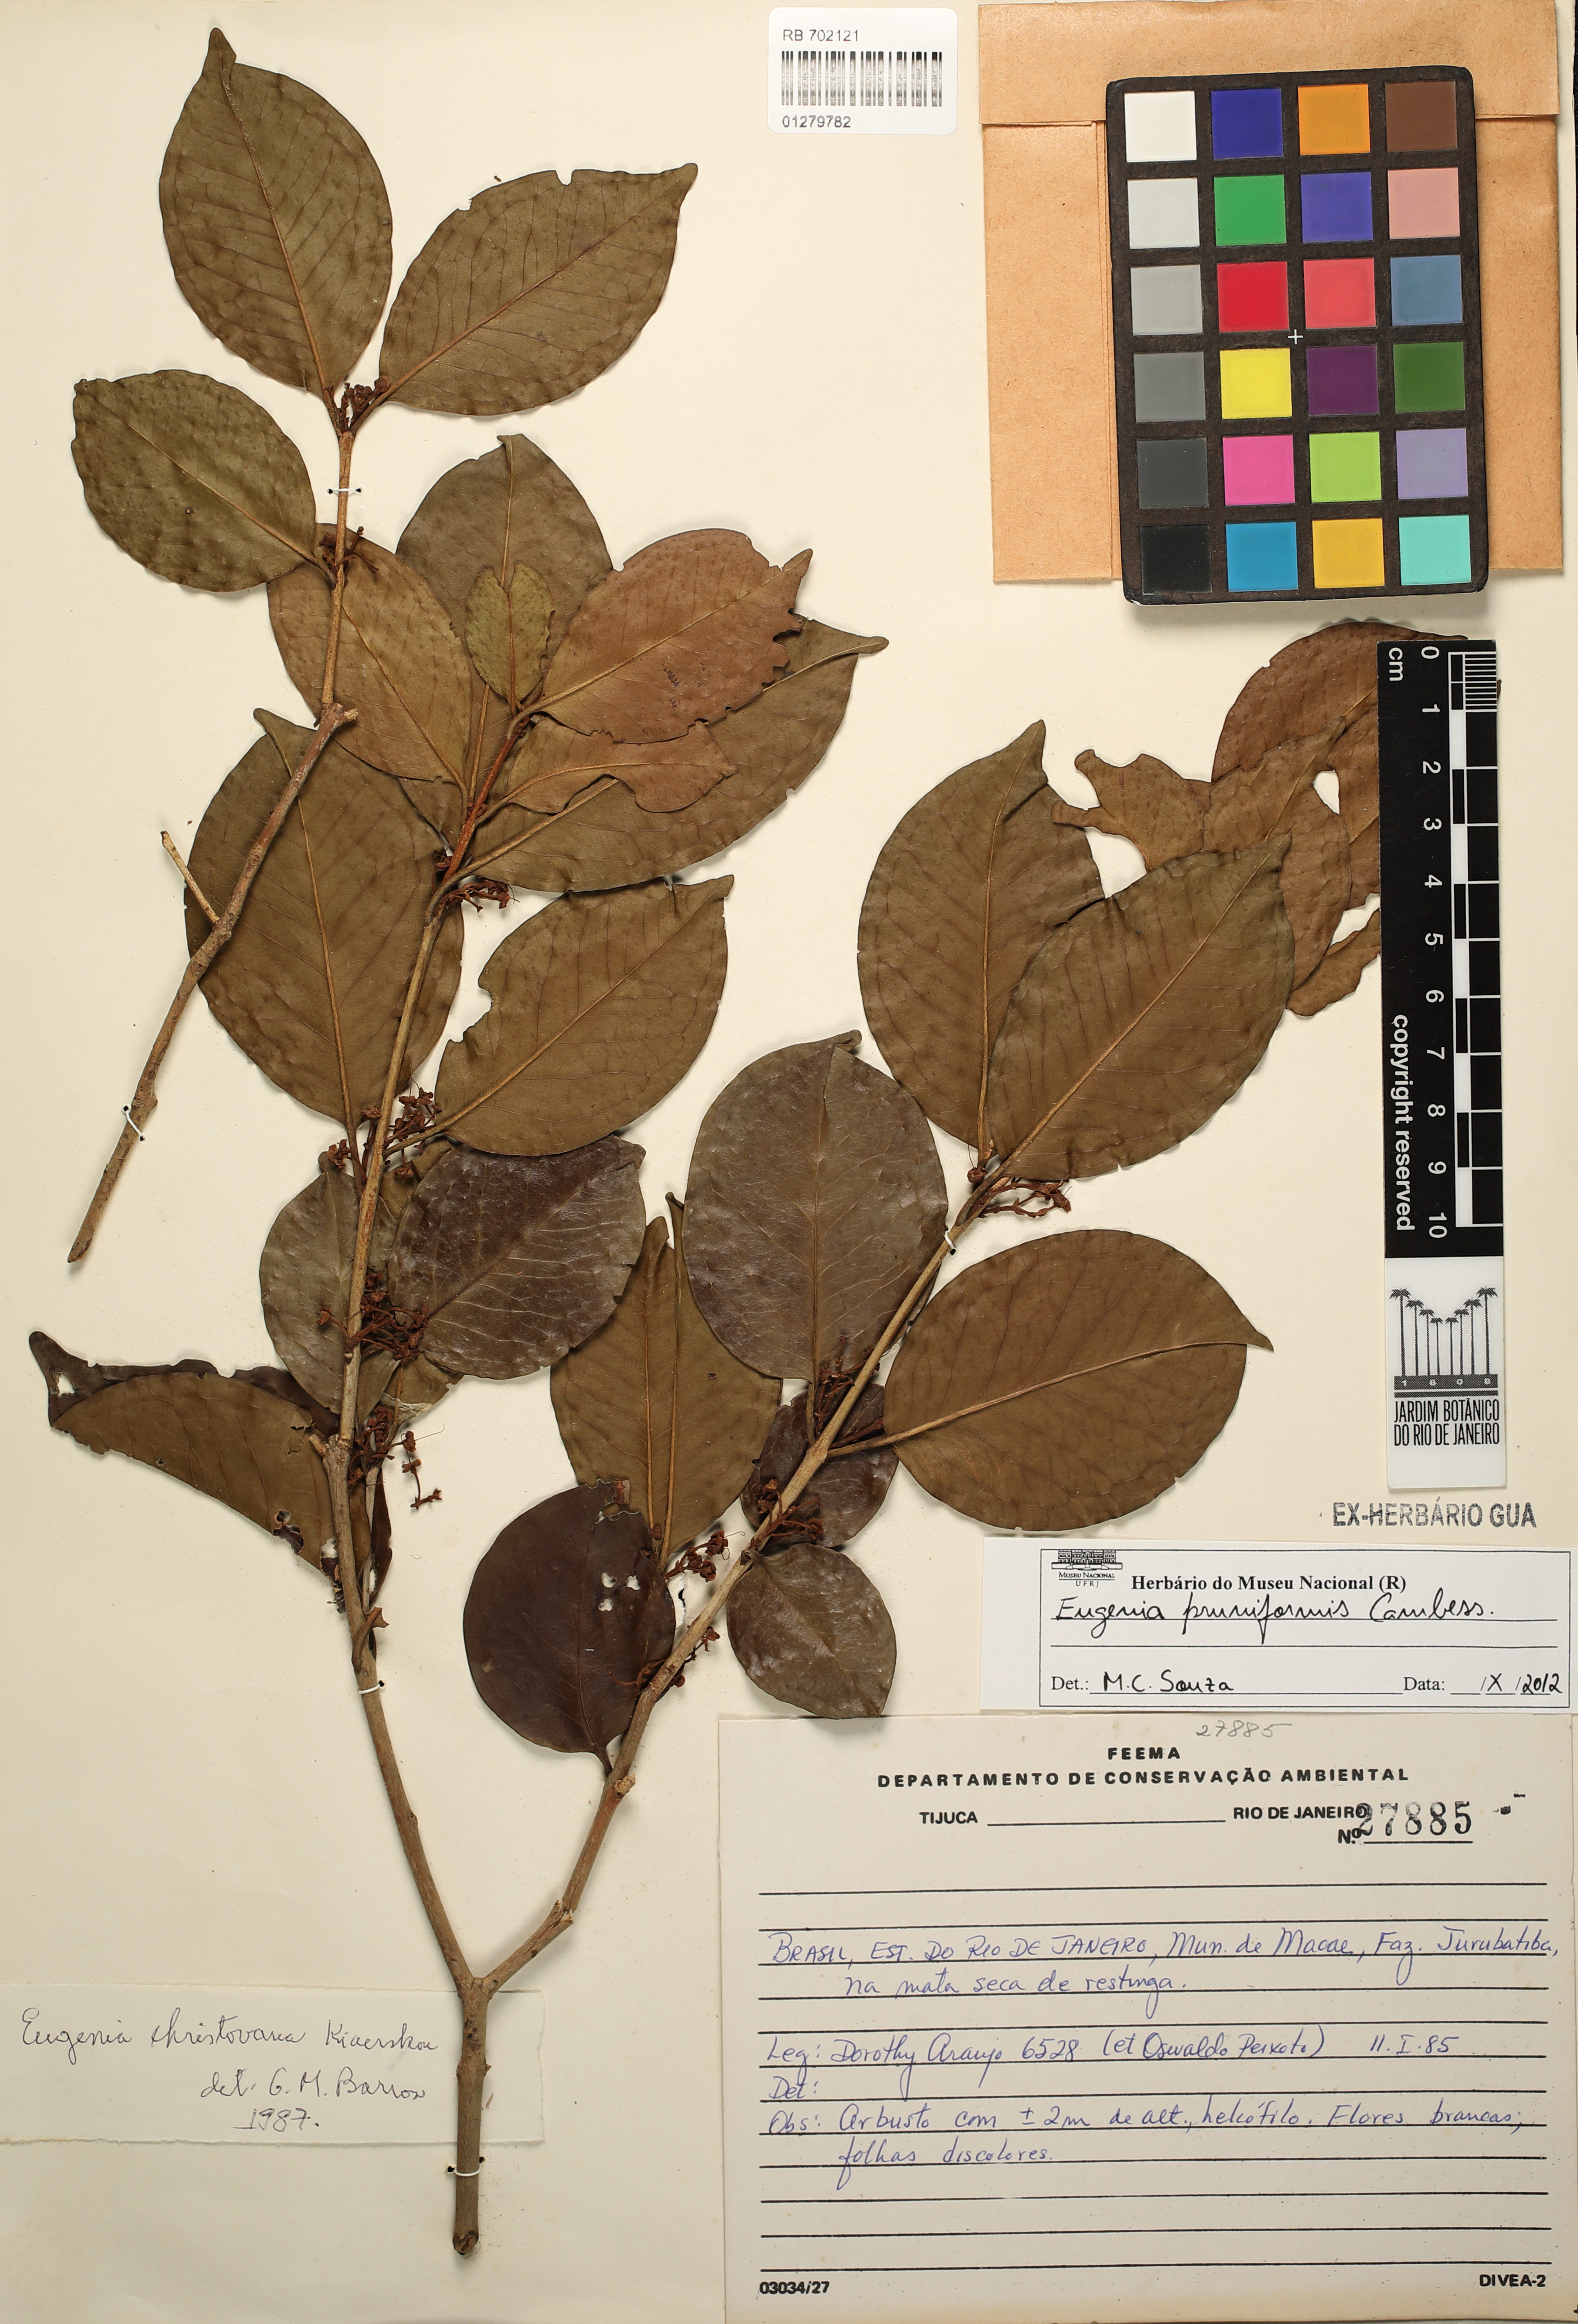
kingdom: Plantae
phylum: Tracheophyta
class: Magnoliopsida
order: Myrtales
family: Myrtaceae
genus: Eugenia
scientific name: Eugenia pruniformis
